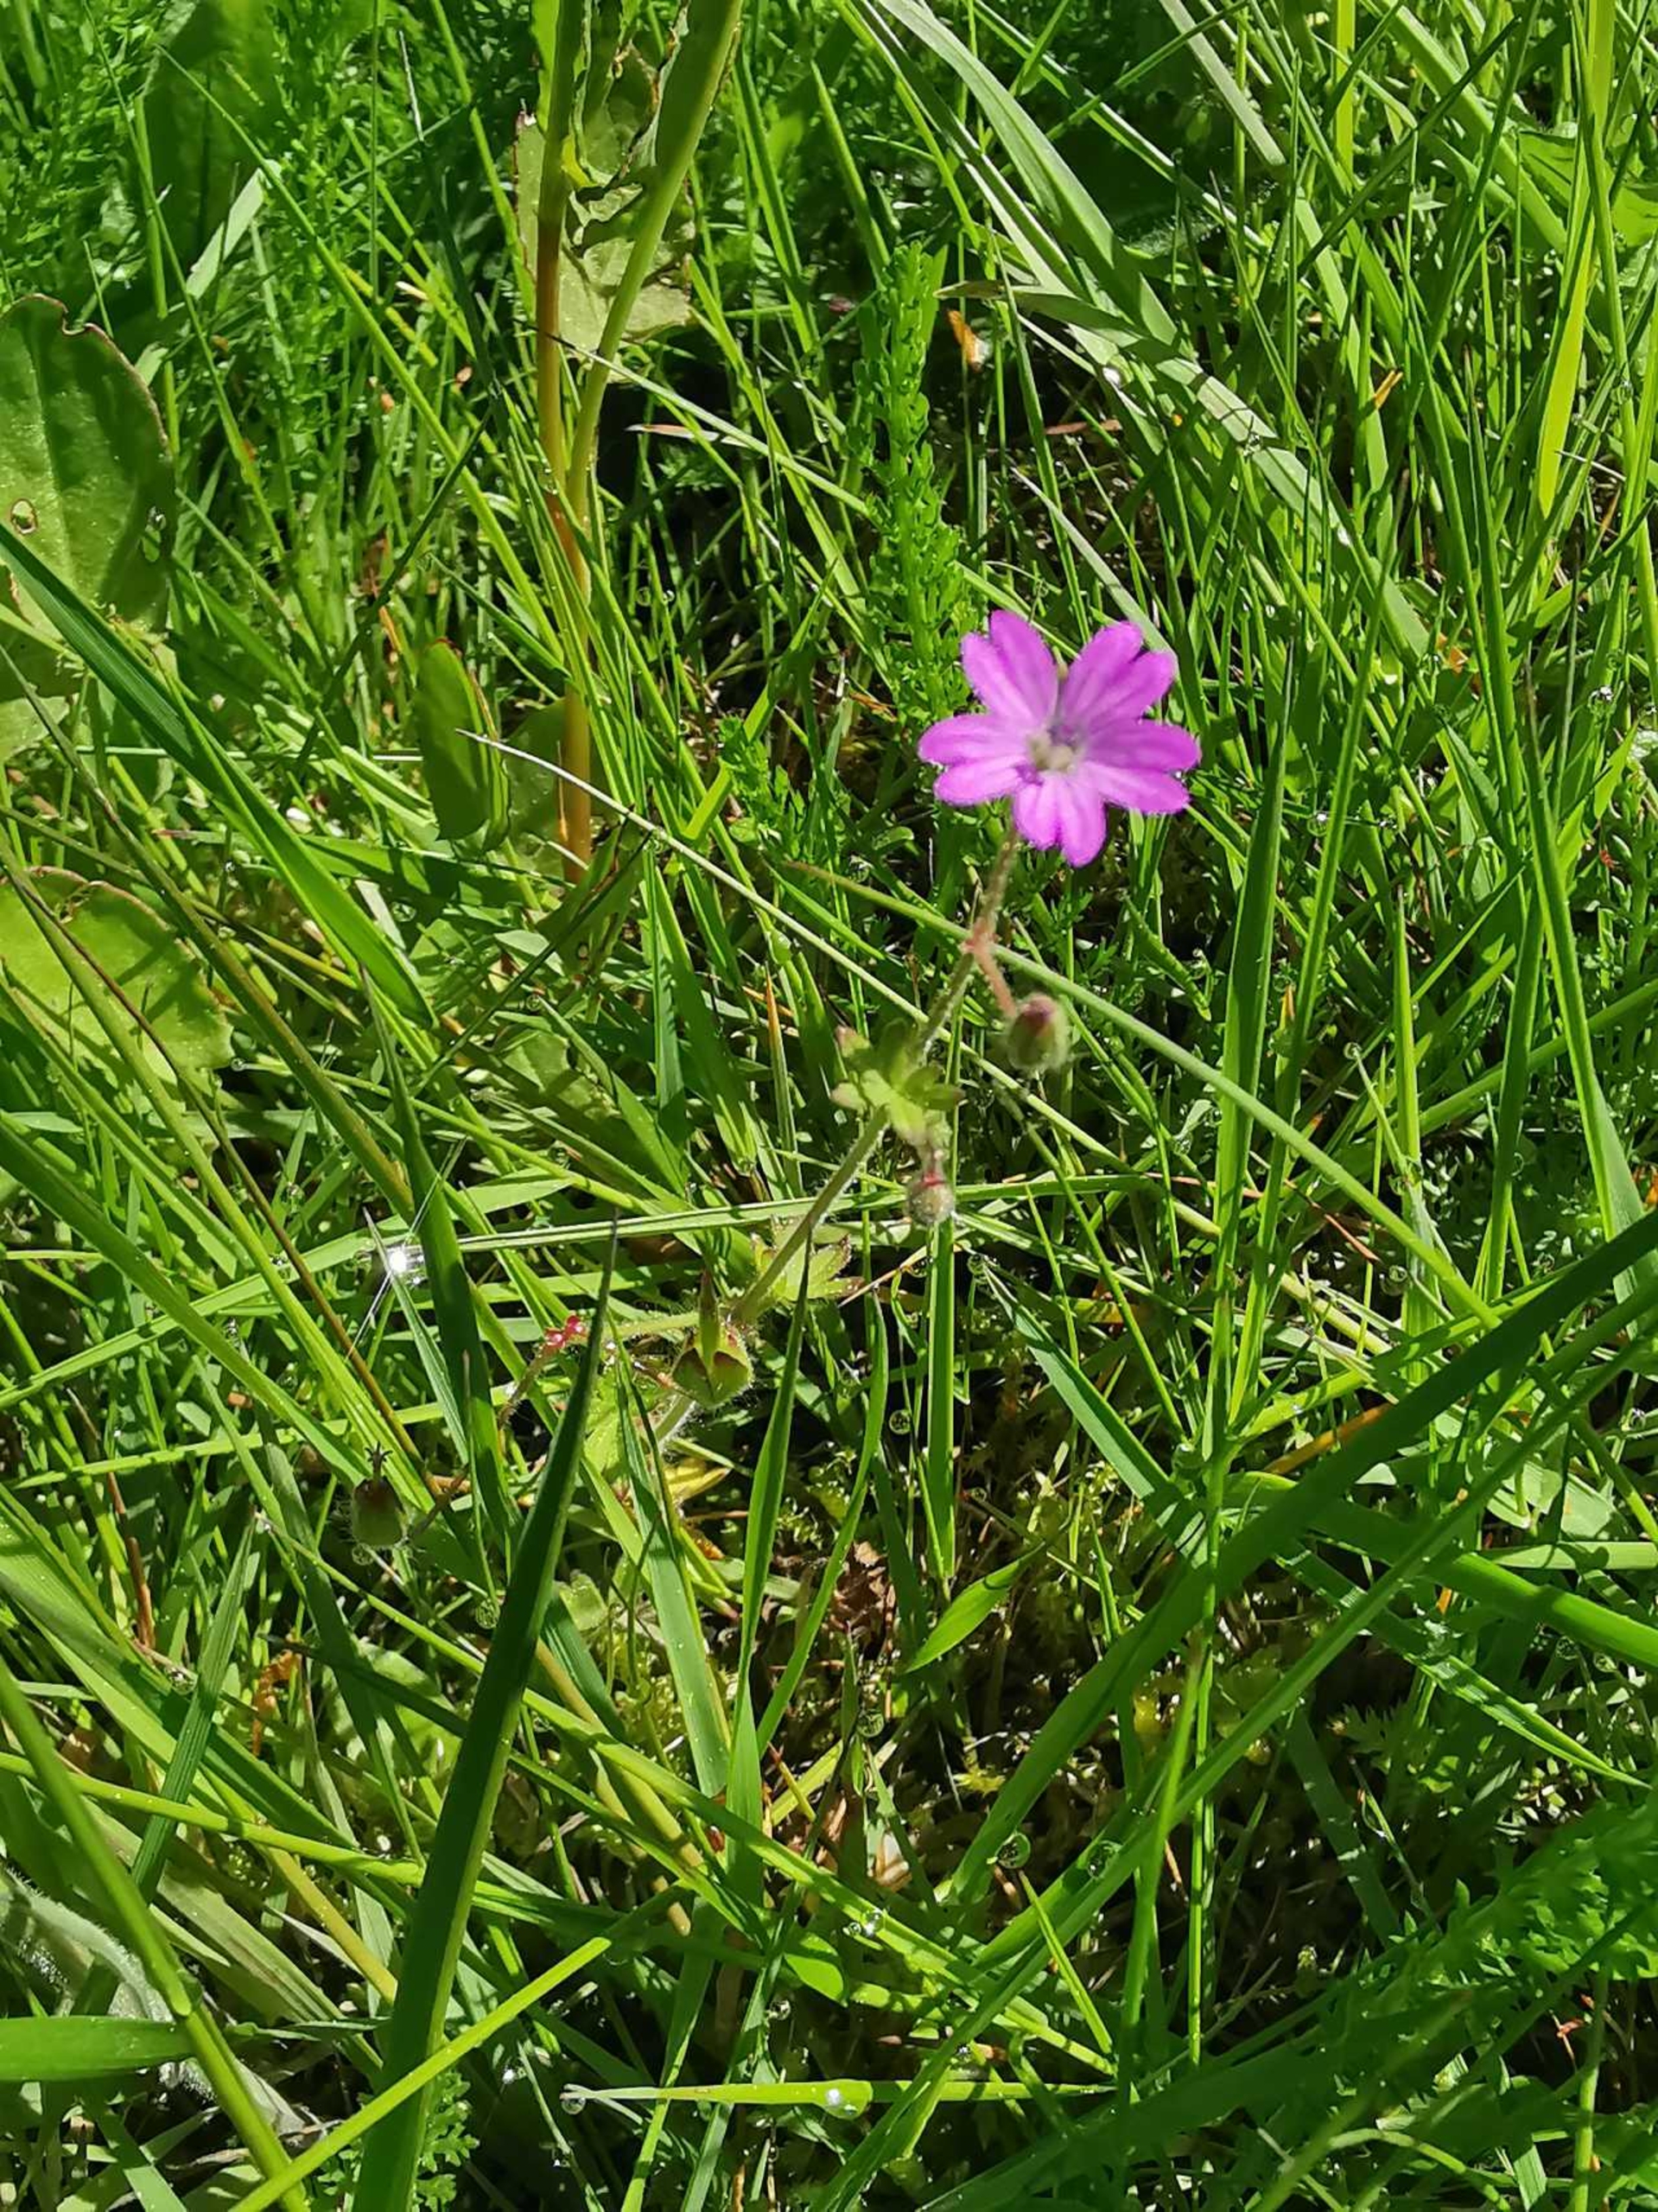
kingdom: Plantae
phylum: Tracheophyta
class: Magnoliopsida
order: Geraniales
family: Geraniaceae
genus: Geranium
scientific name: Geranium molle
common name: Blød storkenæb
